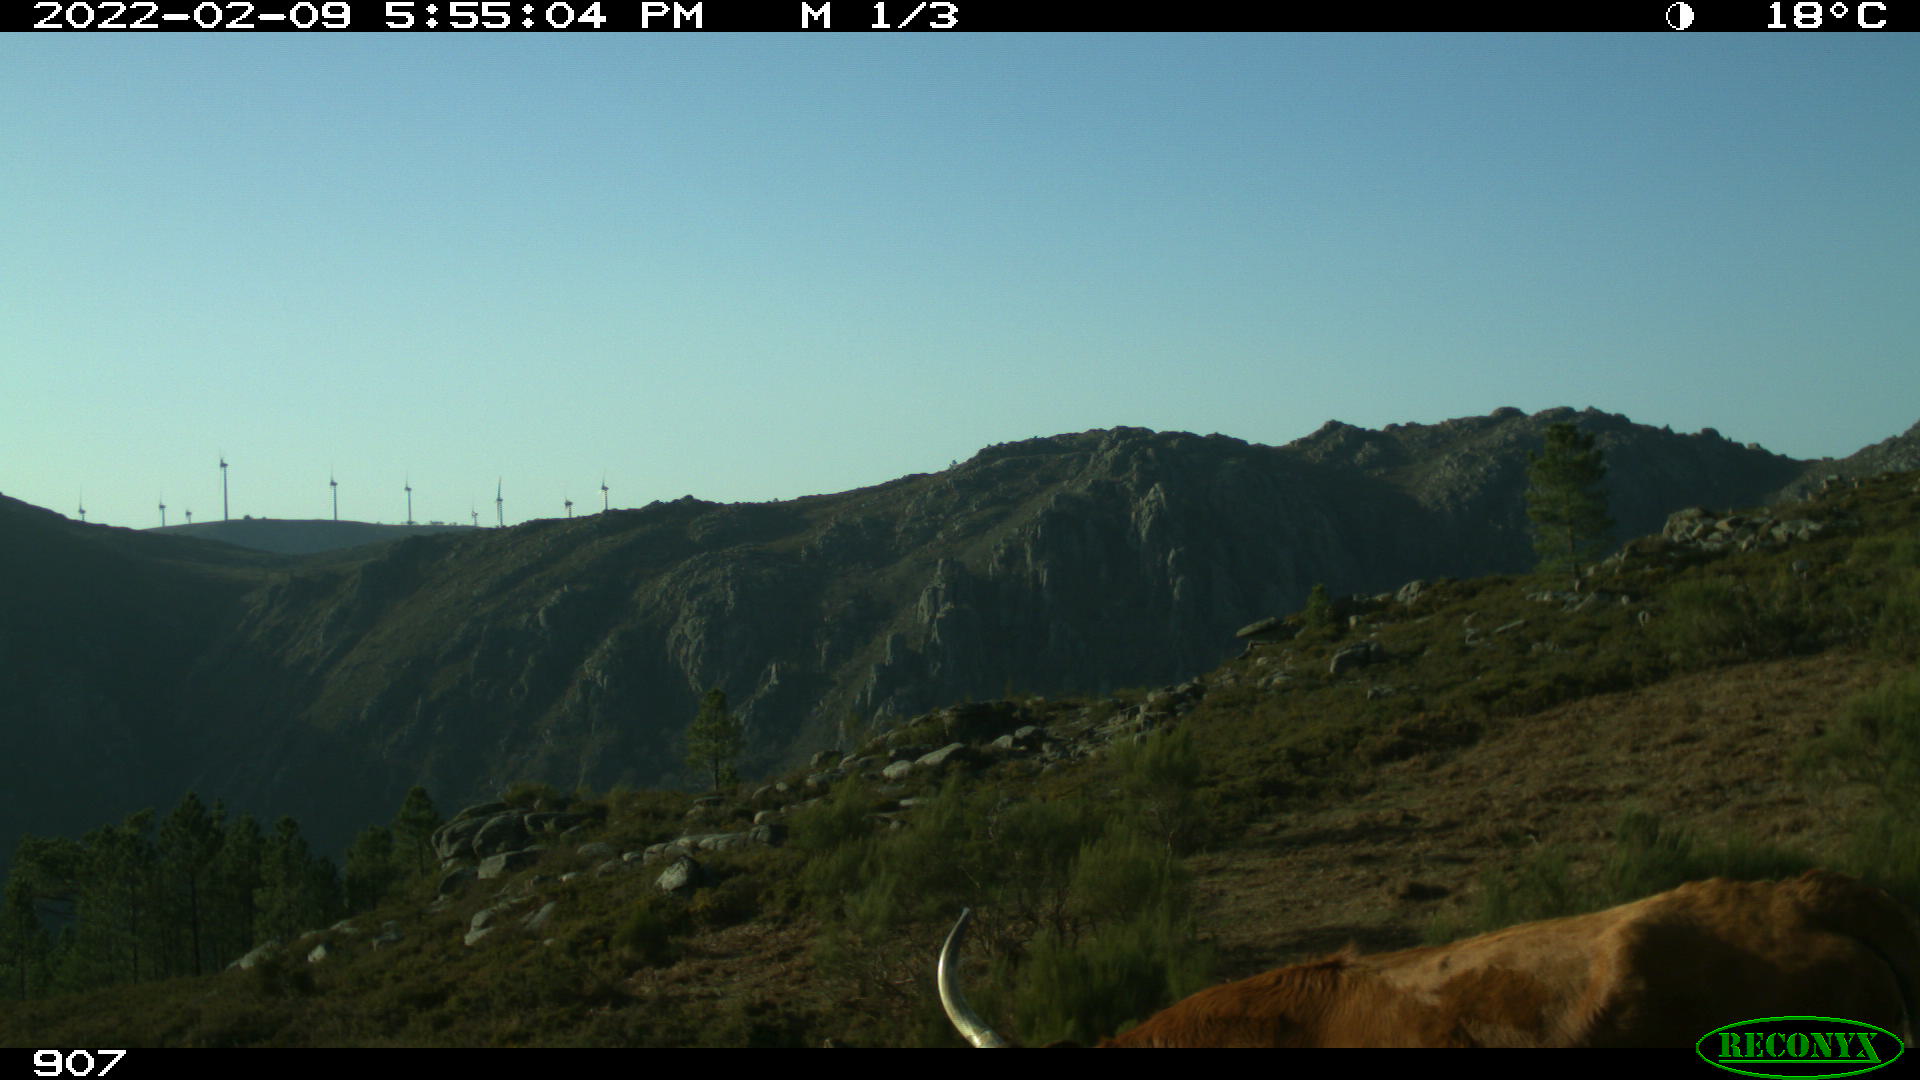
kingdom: Animalia
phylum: Chordata
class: Mammalia
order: Artiodactyla
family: Bovidae
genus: Bos
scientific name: Bos taurus
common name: Domesticated cattle
